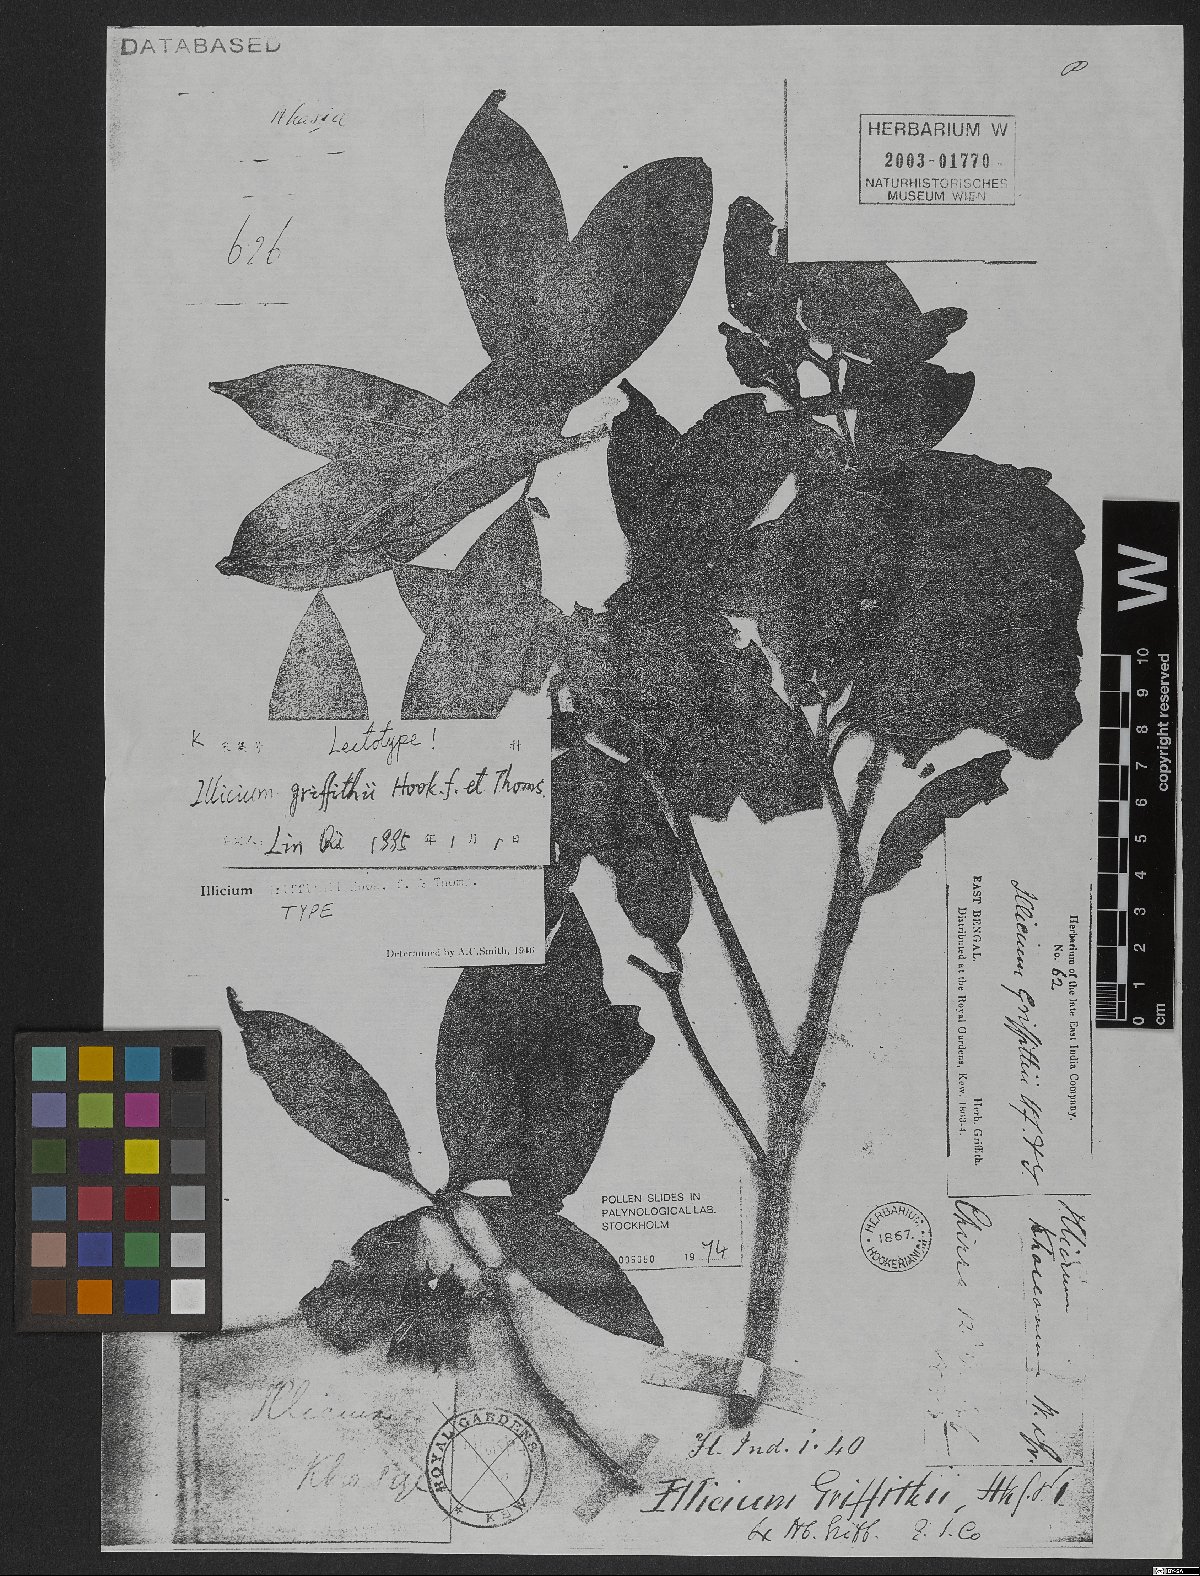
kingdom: Plantae
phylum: Tracheophyta
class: Magnoliopsida
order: Austrobaileyales
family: Schisandraceae
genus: Illicium
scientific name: Illicium griffithii
